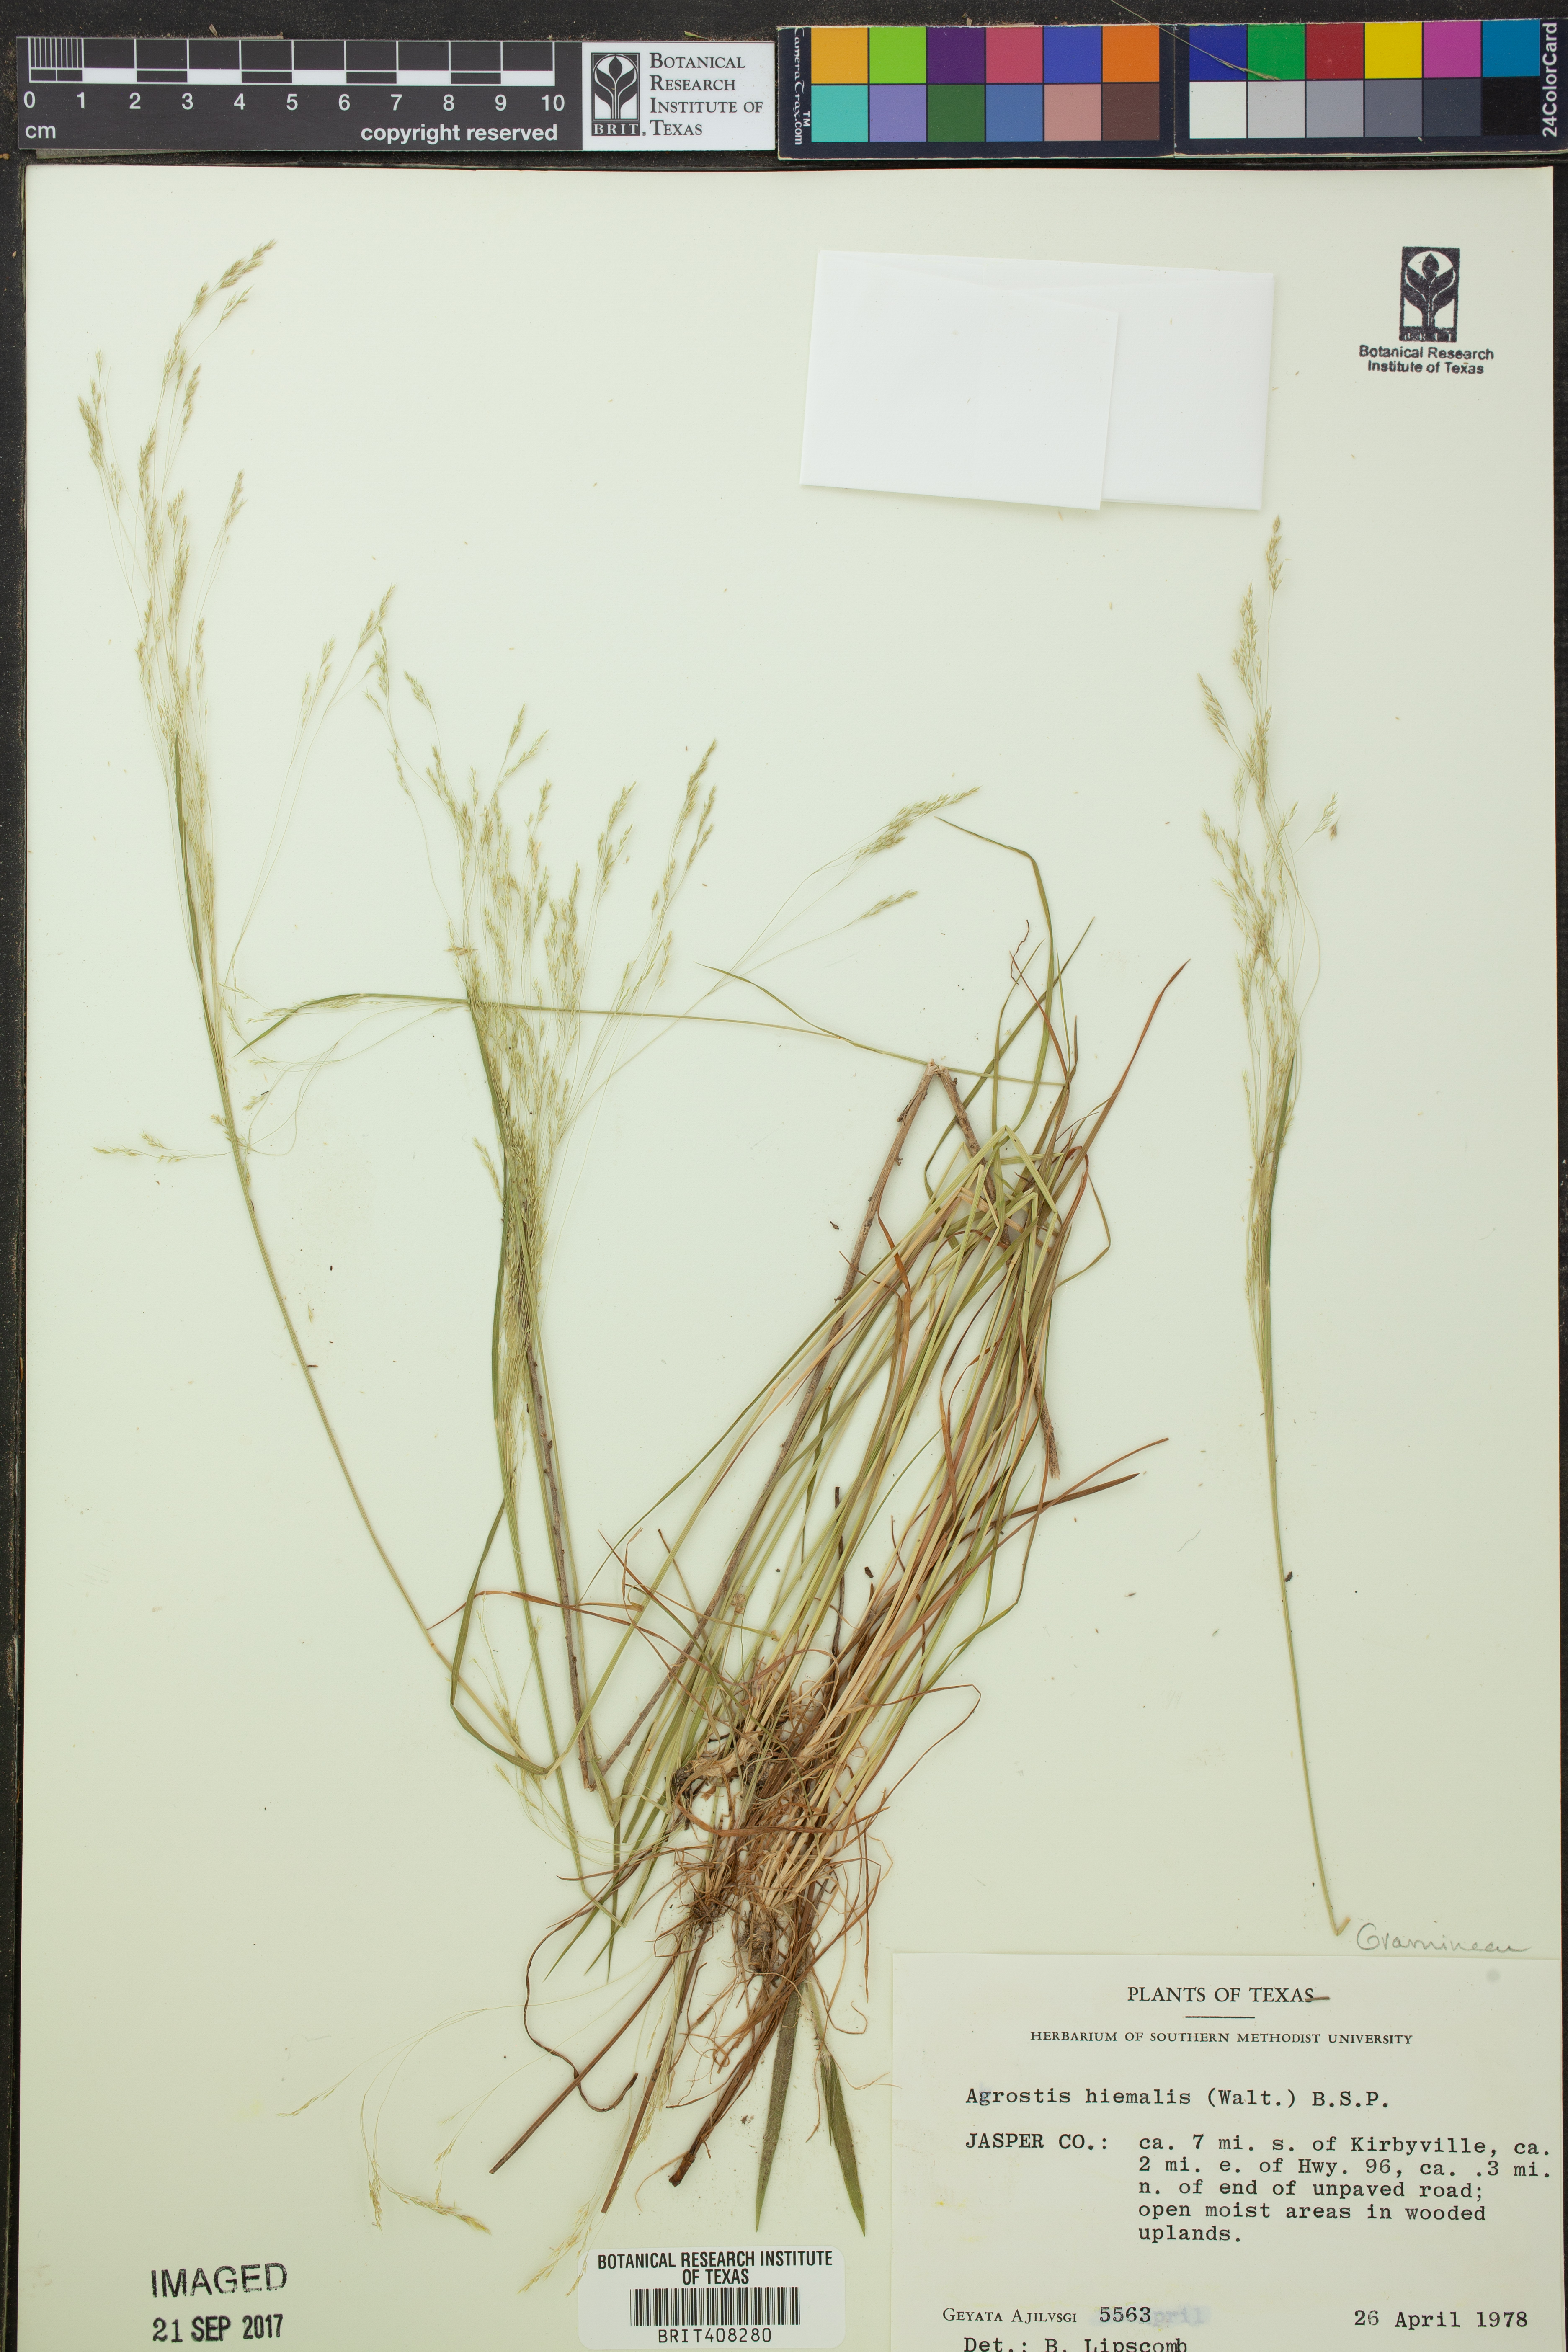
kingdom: Plantae
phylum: Tracheophyta
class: Liliopsida
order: Poales
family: Poaceae
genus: Agrostis
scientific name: Agrostis hyemalis
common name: Small bent
